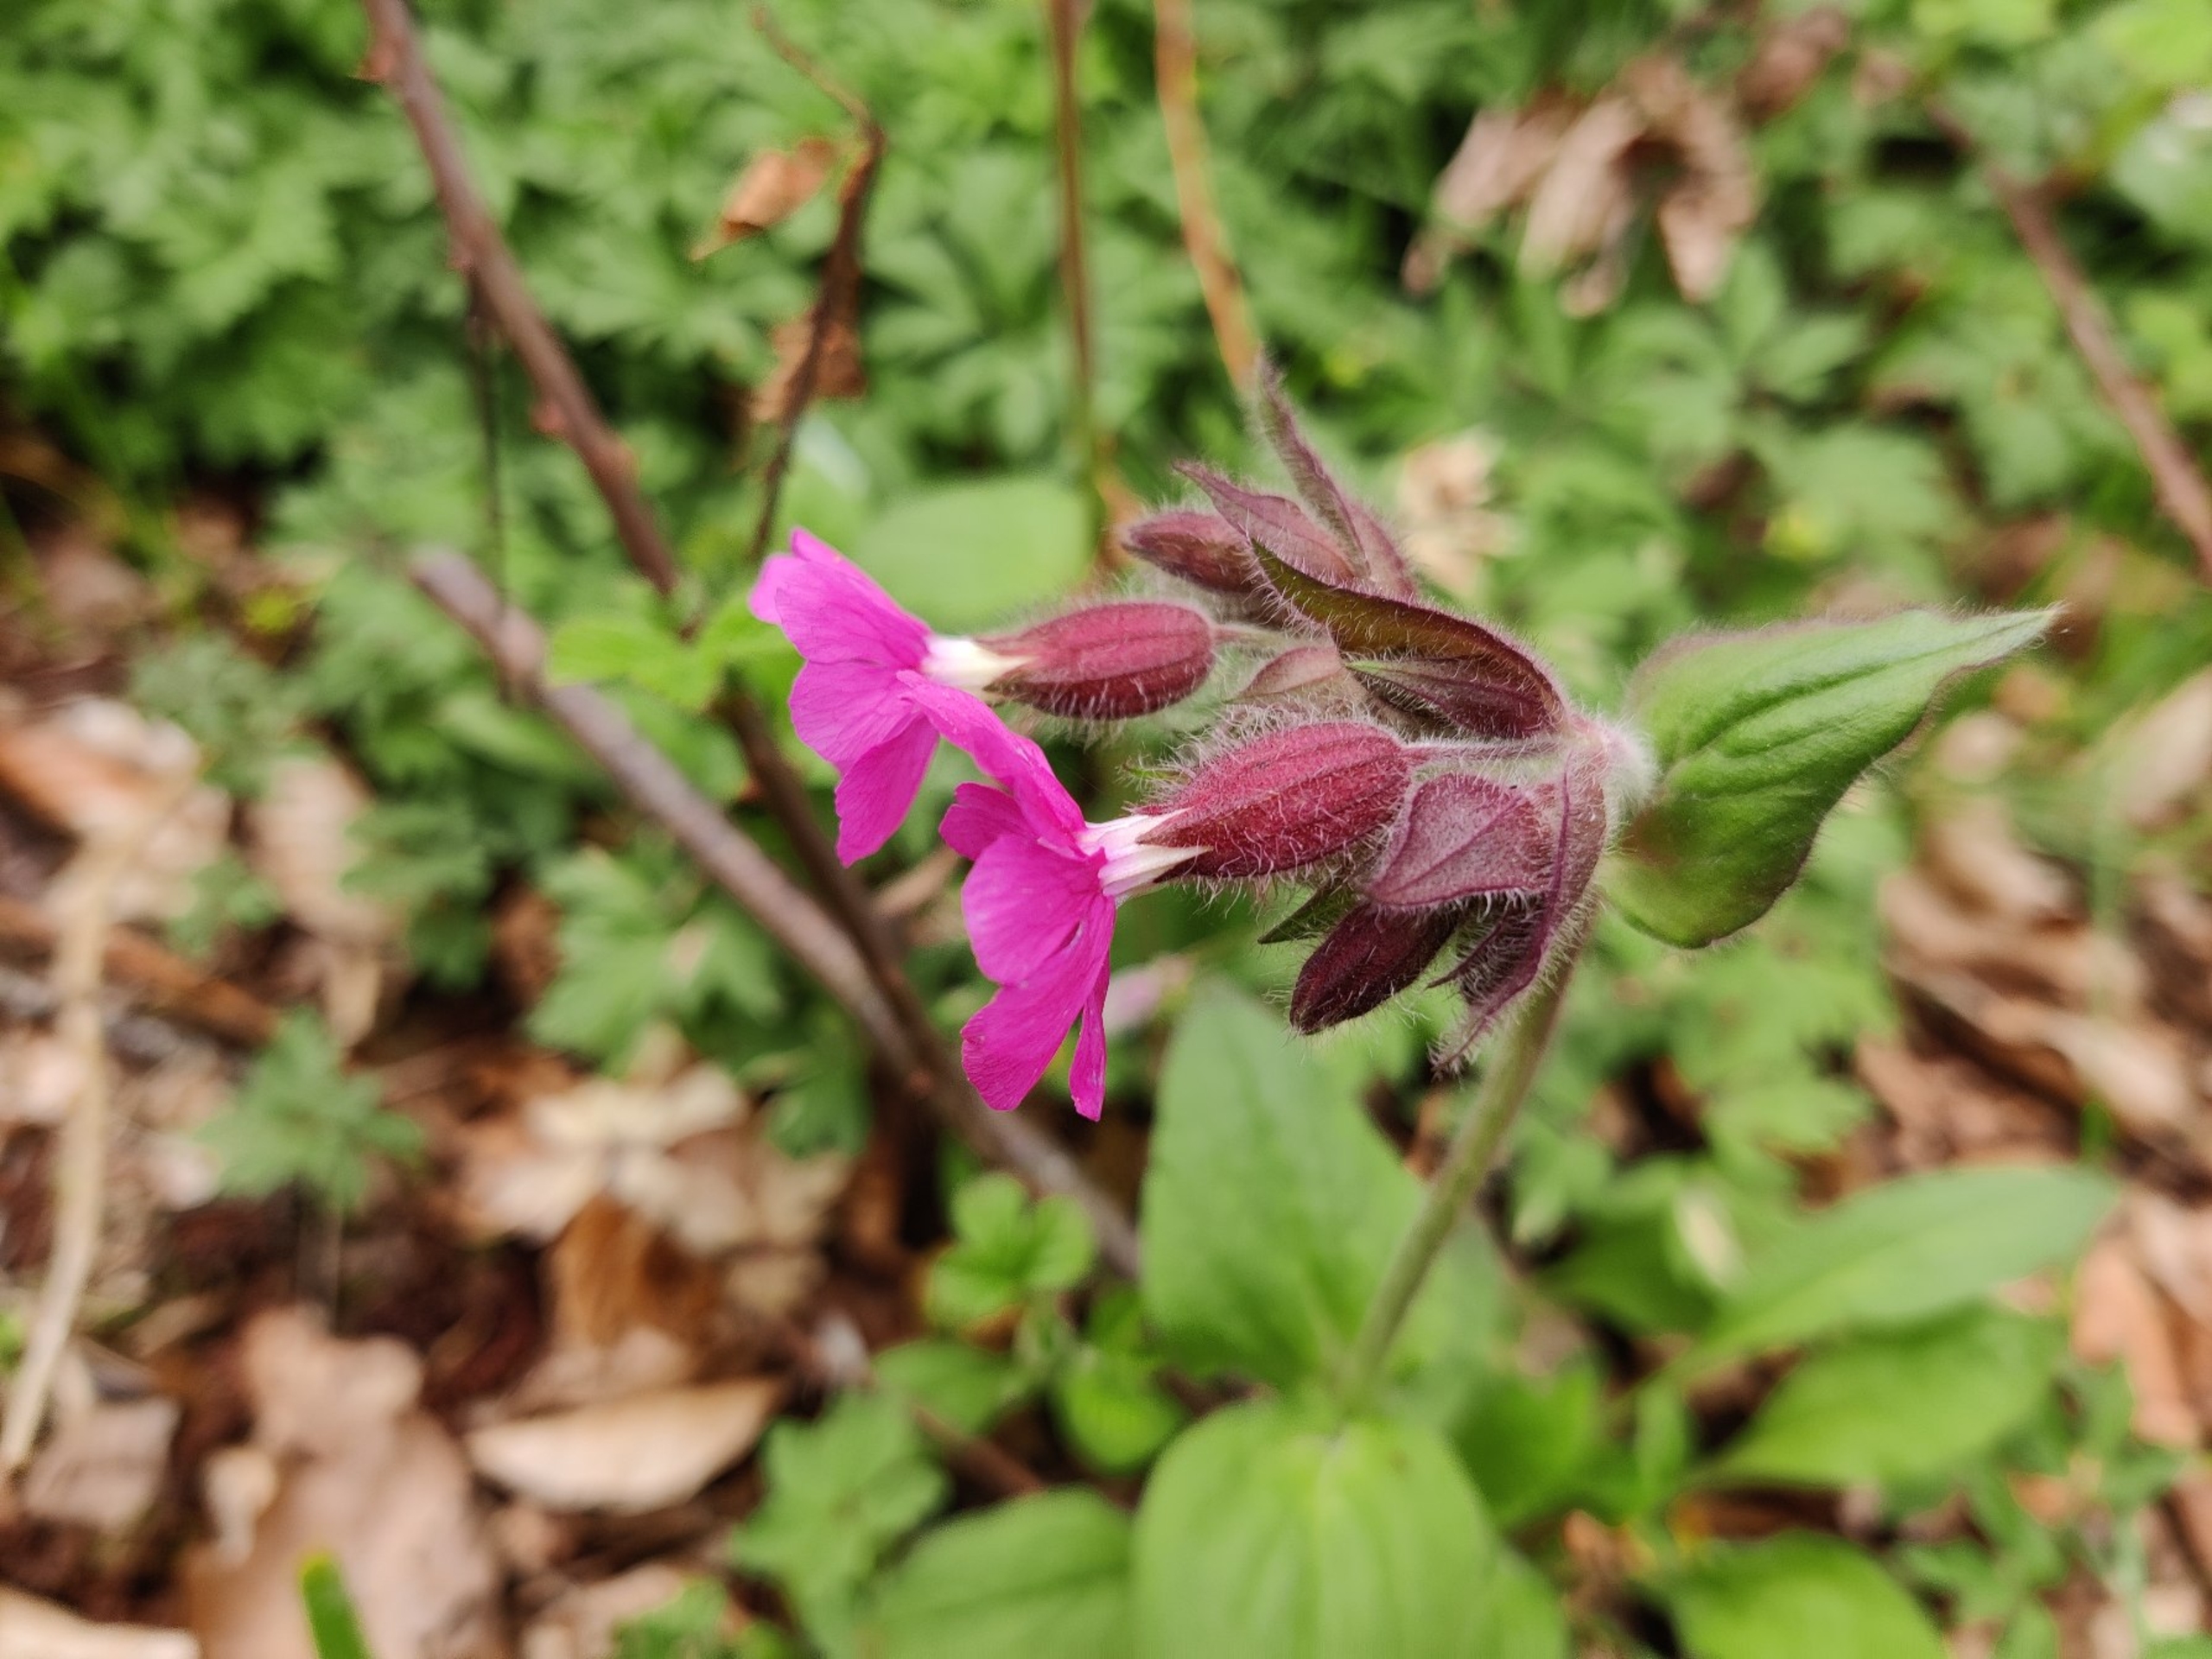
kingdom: Plantae
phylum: Tracheophyta
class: Magnoliopsida
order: Caryophyllales
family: Caryophyllaceae
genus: Silene
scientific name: Silene dioica
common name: Dagpragtstjerne
